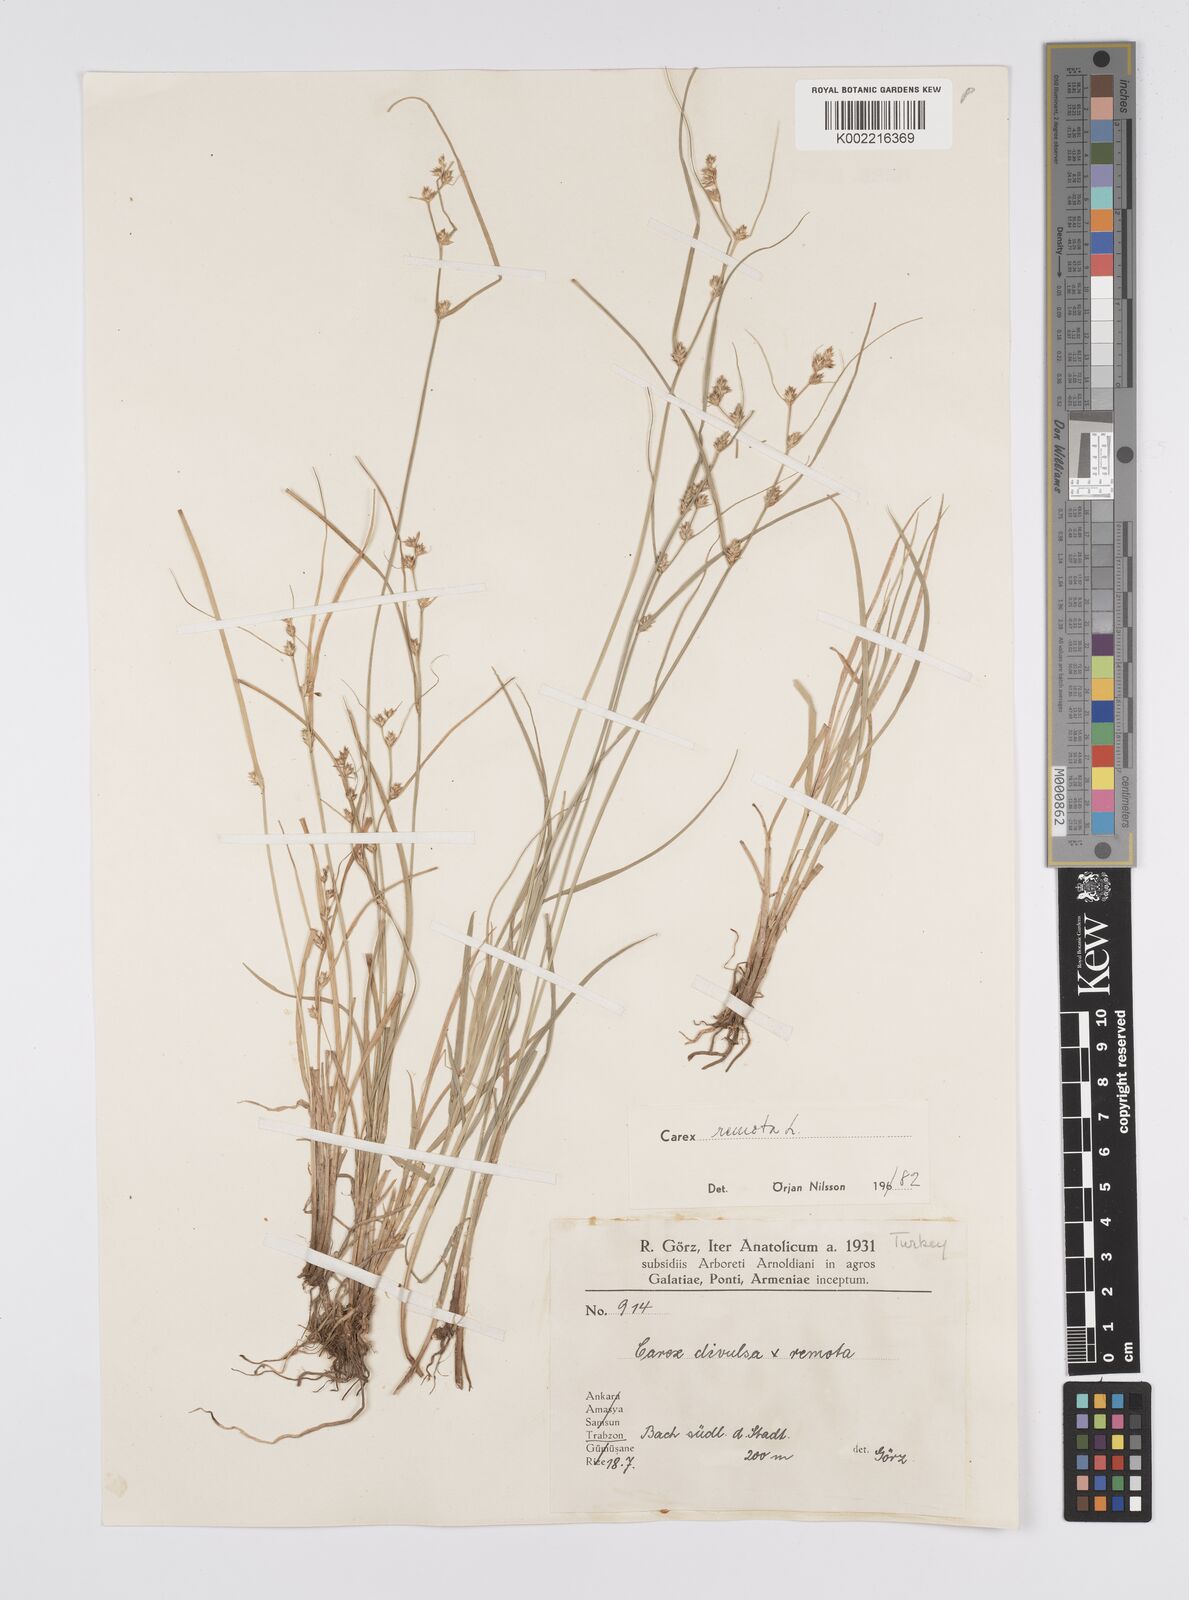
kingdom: Plantae
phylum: Tracheophyta
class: Liliopsida
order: Poales
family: Cyperaceae
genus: Carex
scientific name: Carex remota
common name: Remote sedge
